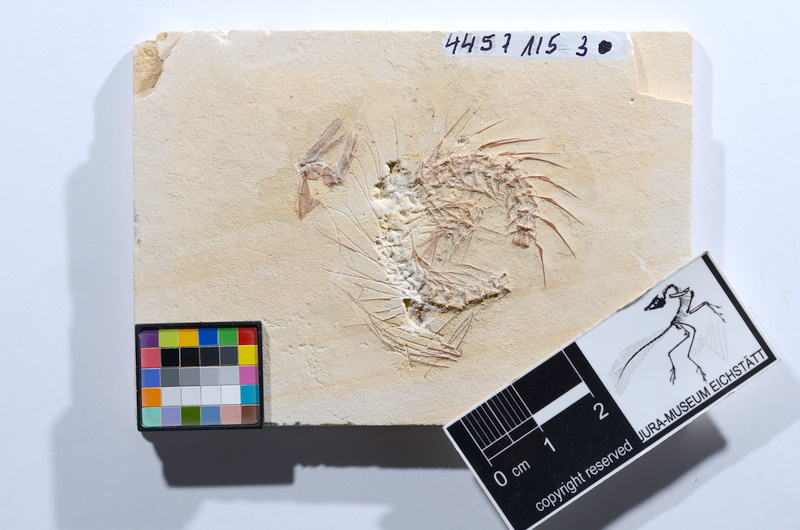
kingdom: Animalia
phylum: Chordata
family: Ascalaboidae
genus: Tharsis
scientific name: Tharsis dubius
